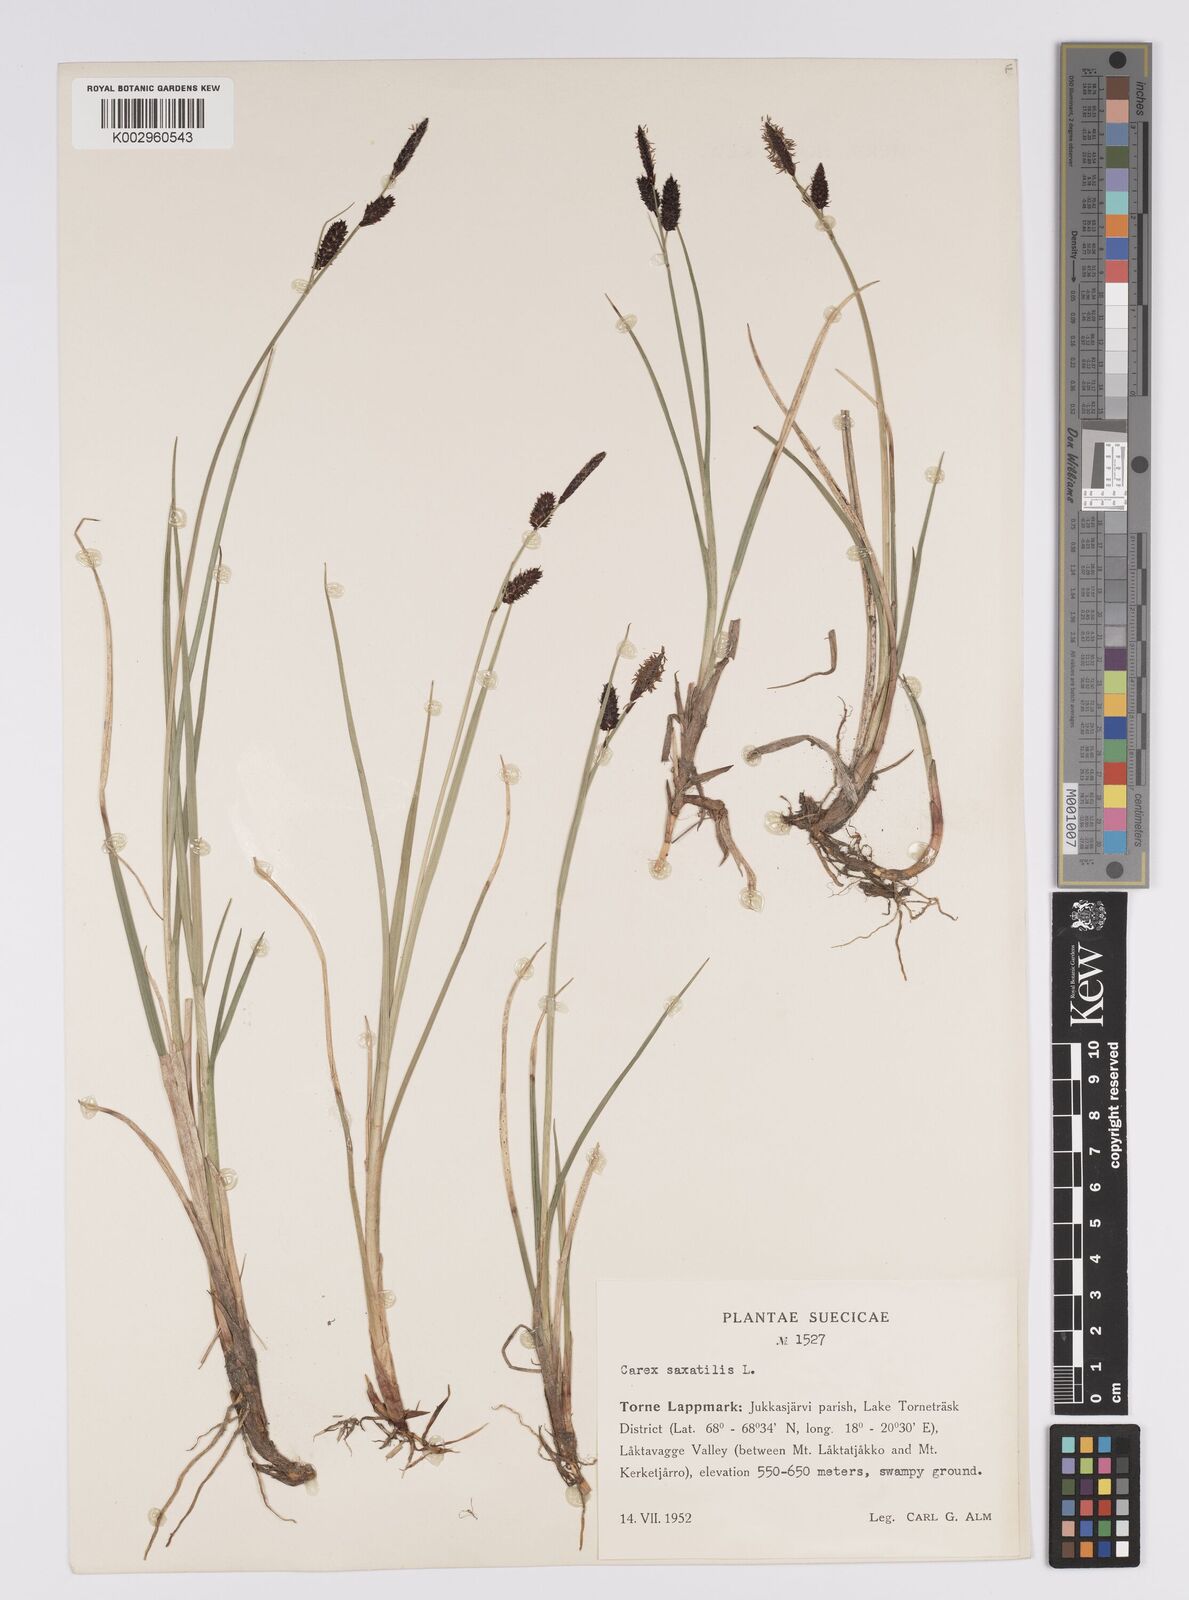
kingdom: Plantae
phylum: Tracheophyta
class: Liliopsida
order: Poales
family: Cyperaceae
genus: Carex
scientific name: Carex saxatilis
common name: Russet sedge
